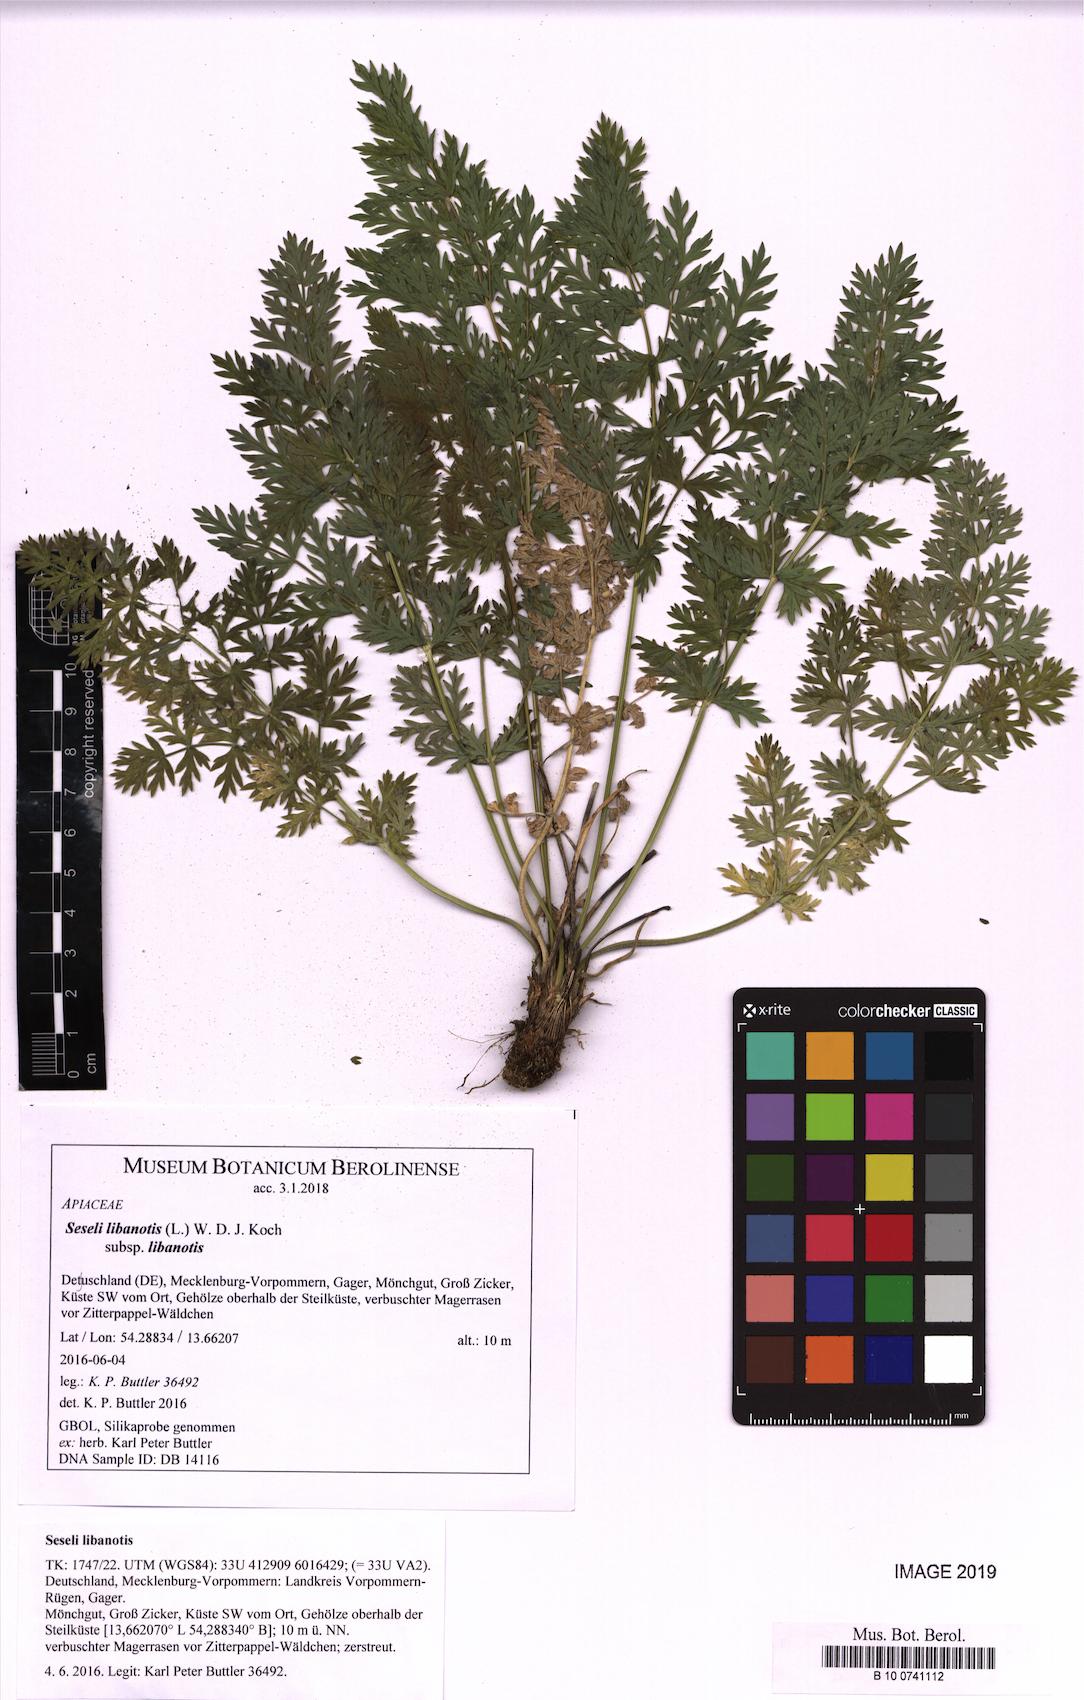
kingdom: Plantae
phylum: Tracheophyta
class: Magnoliopsida
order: Apiales
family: Apiaceae
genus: Seseli
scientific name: Seseli libanotis
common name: Mooncarrot
